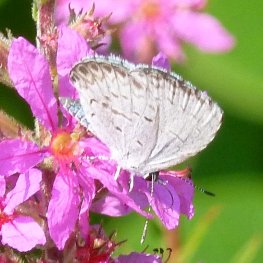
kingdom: Animalia
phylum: Arthropoda
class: Insecta
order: Lepidoptera
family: Lycaenidae
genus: Cyaniris
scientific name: Cyaniris neglecta
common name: Summer Azure
